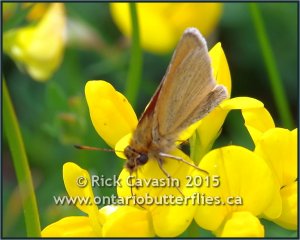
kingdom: Animalia
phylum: Arthropoda
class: Insecta
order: Lepidoptera
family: Hesperiidae
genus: Thymelicus
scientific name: Thymelicus lineola
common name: European Skipper
